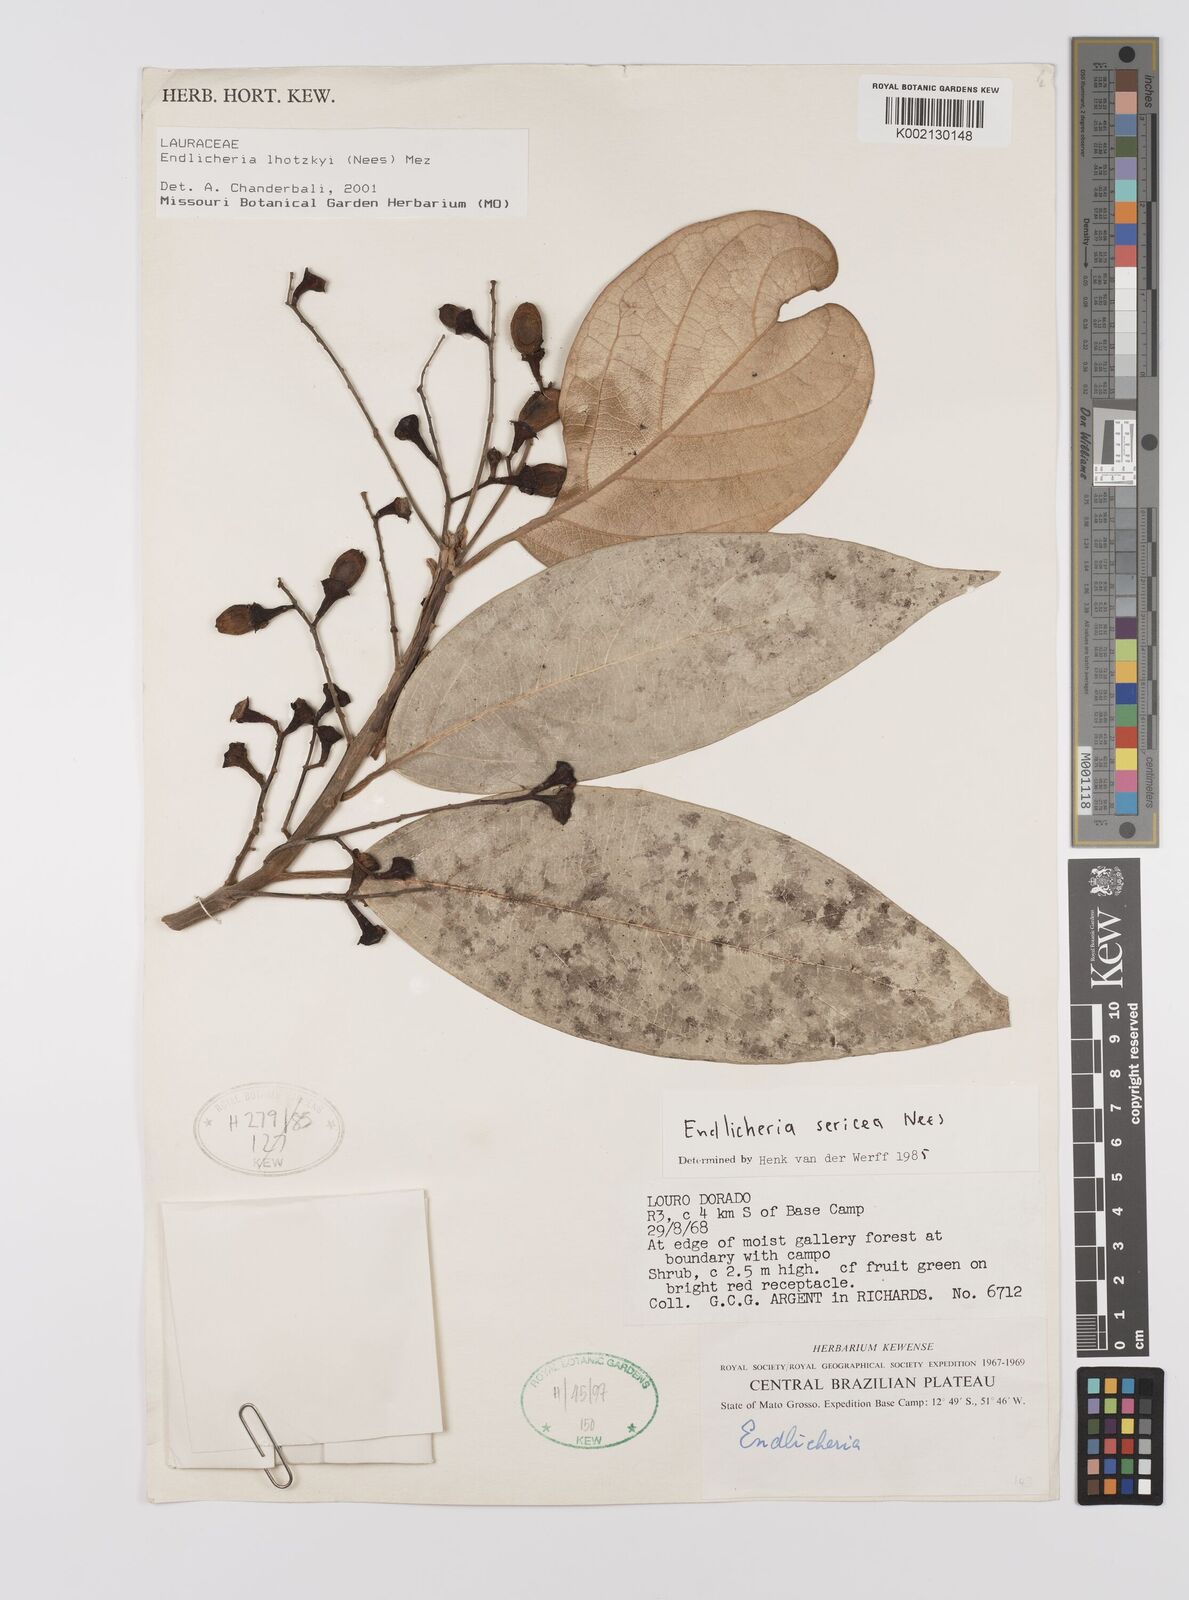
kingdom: Plantae
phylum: Tracheophyta
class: Magnoliopsida
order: Laurales
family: Lauraceae
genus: Endlicheria
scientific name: Endlicheria lhotzkyi
